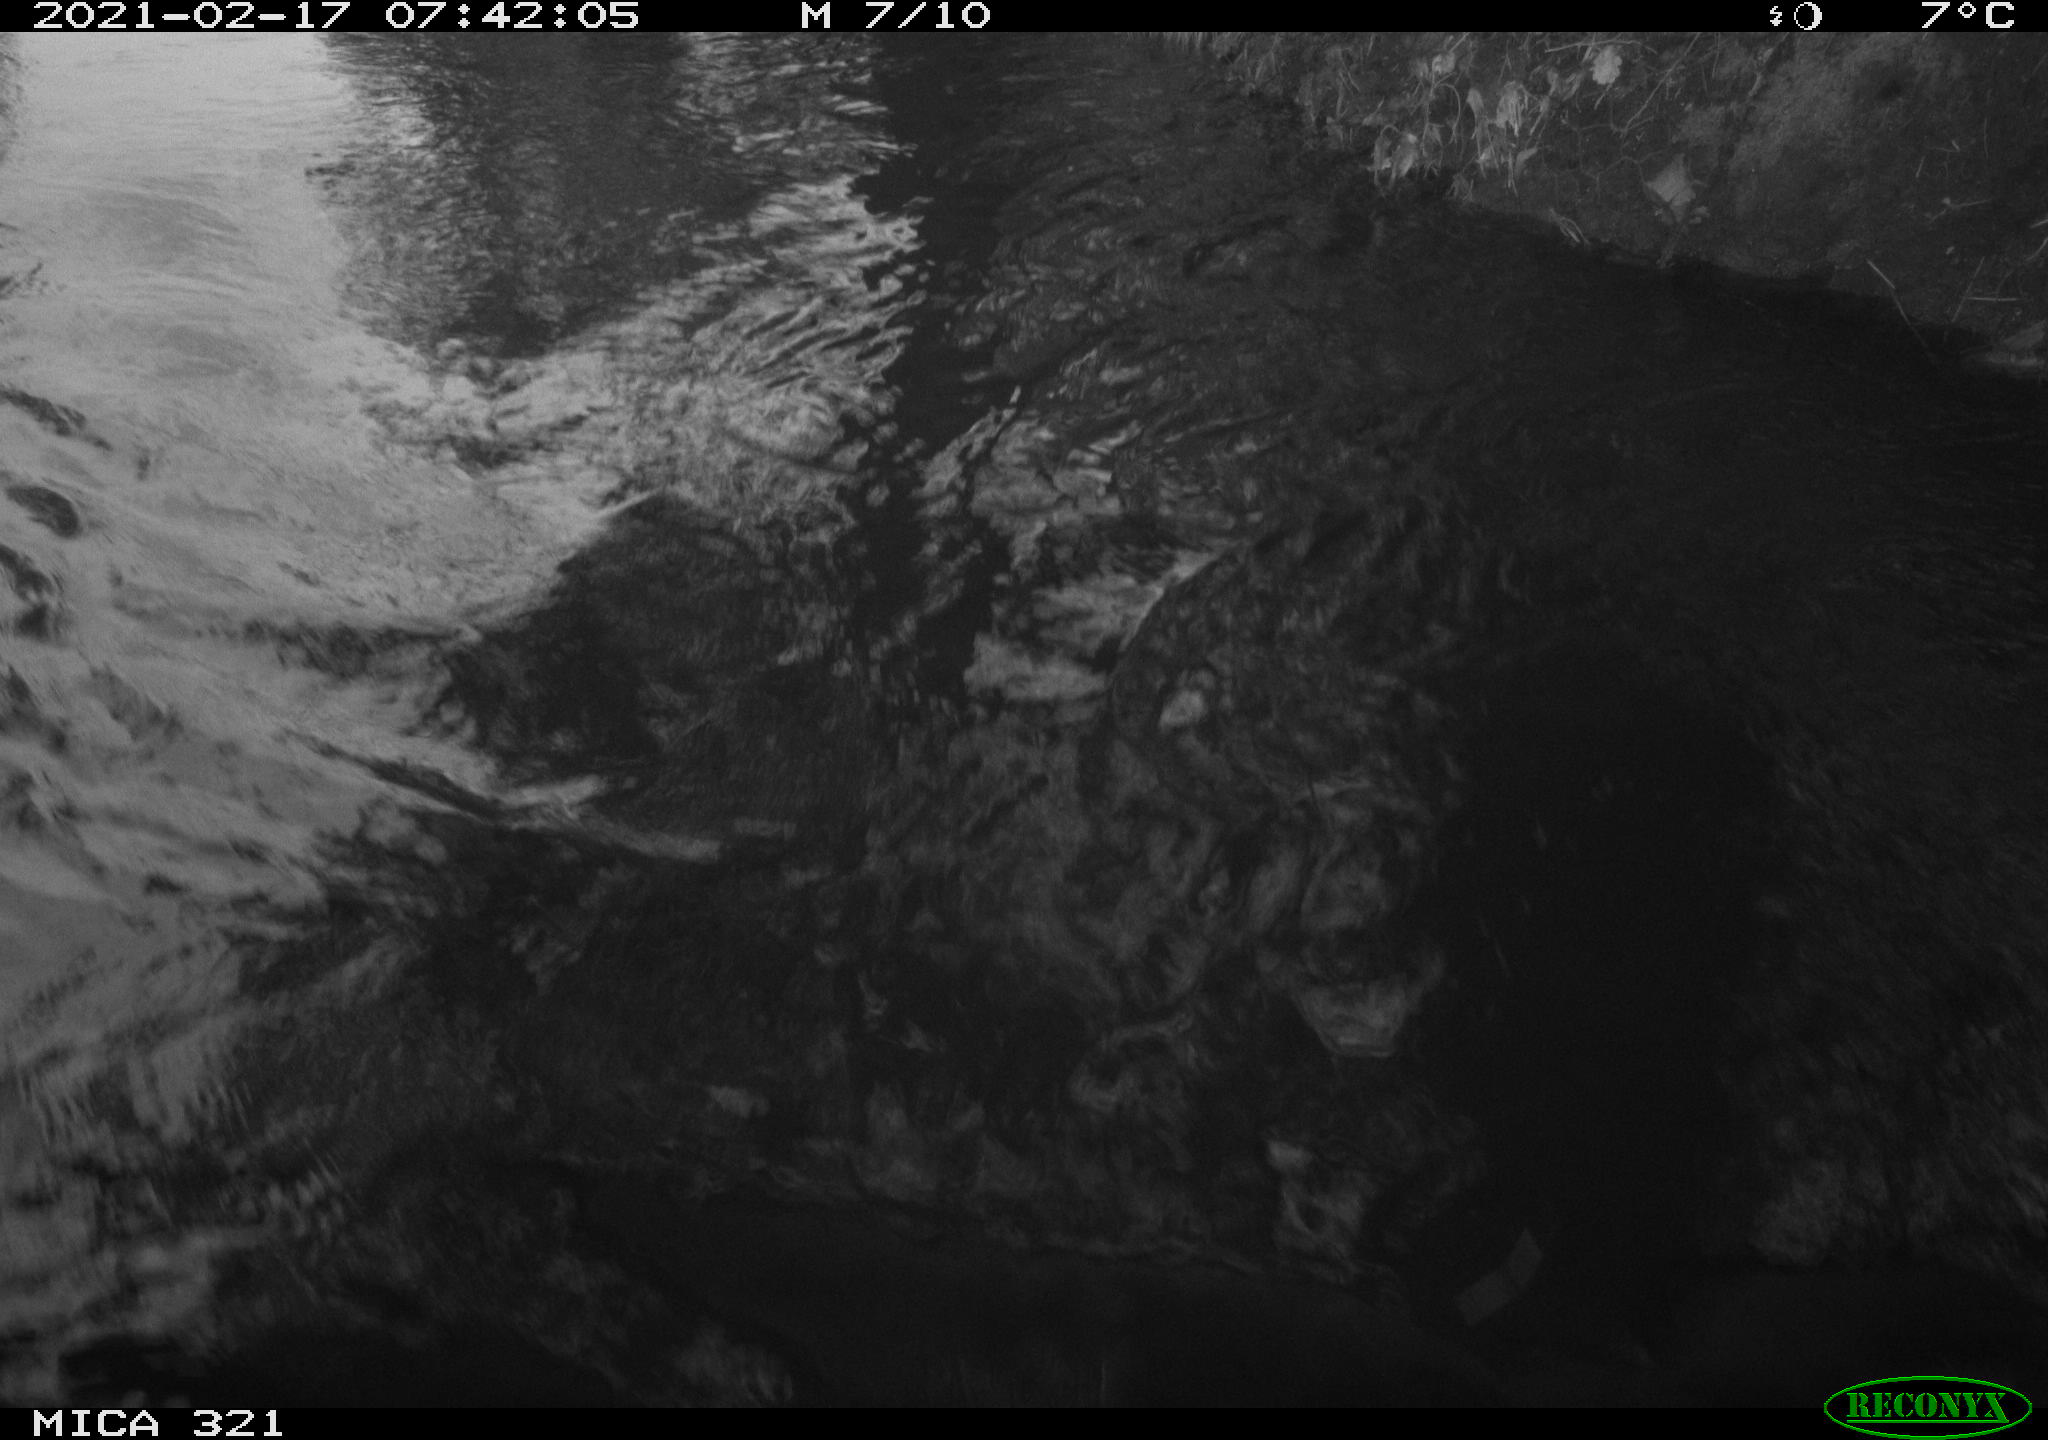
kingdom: Animalia
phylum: Chordata
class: Aves
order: Anseriformes
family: Anatidae
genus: Anas
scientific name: Anas platyrhynchos
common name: Mallard
